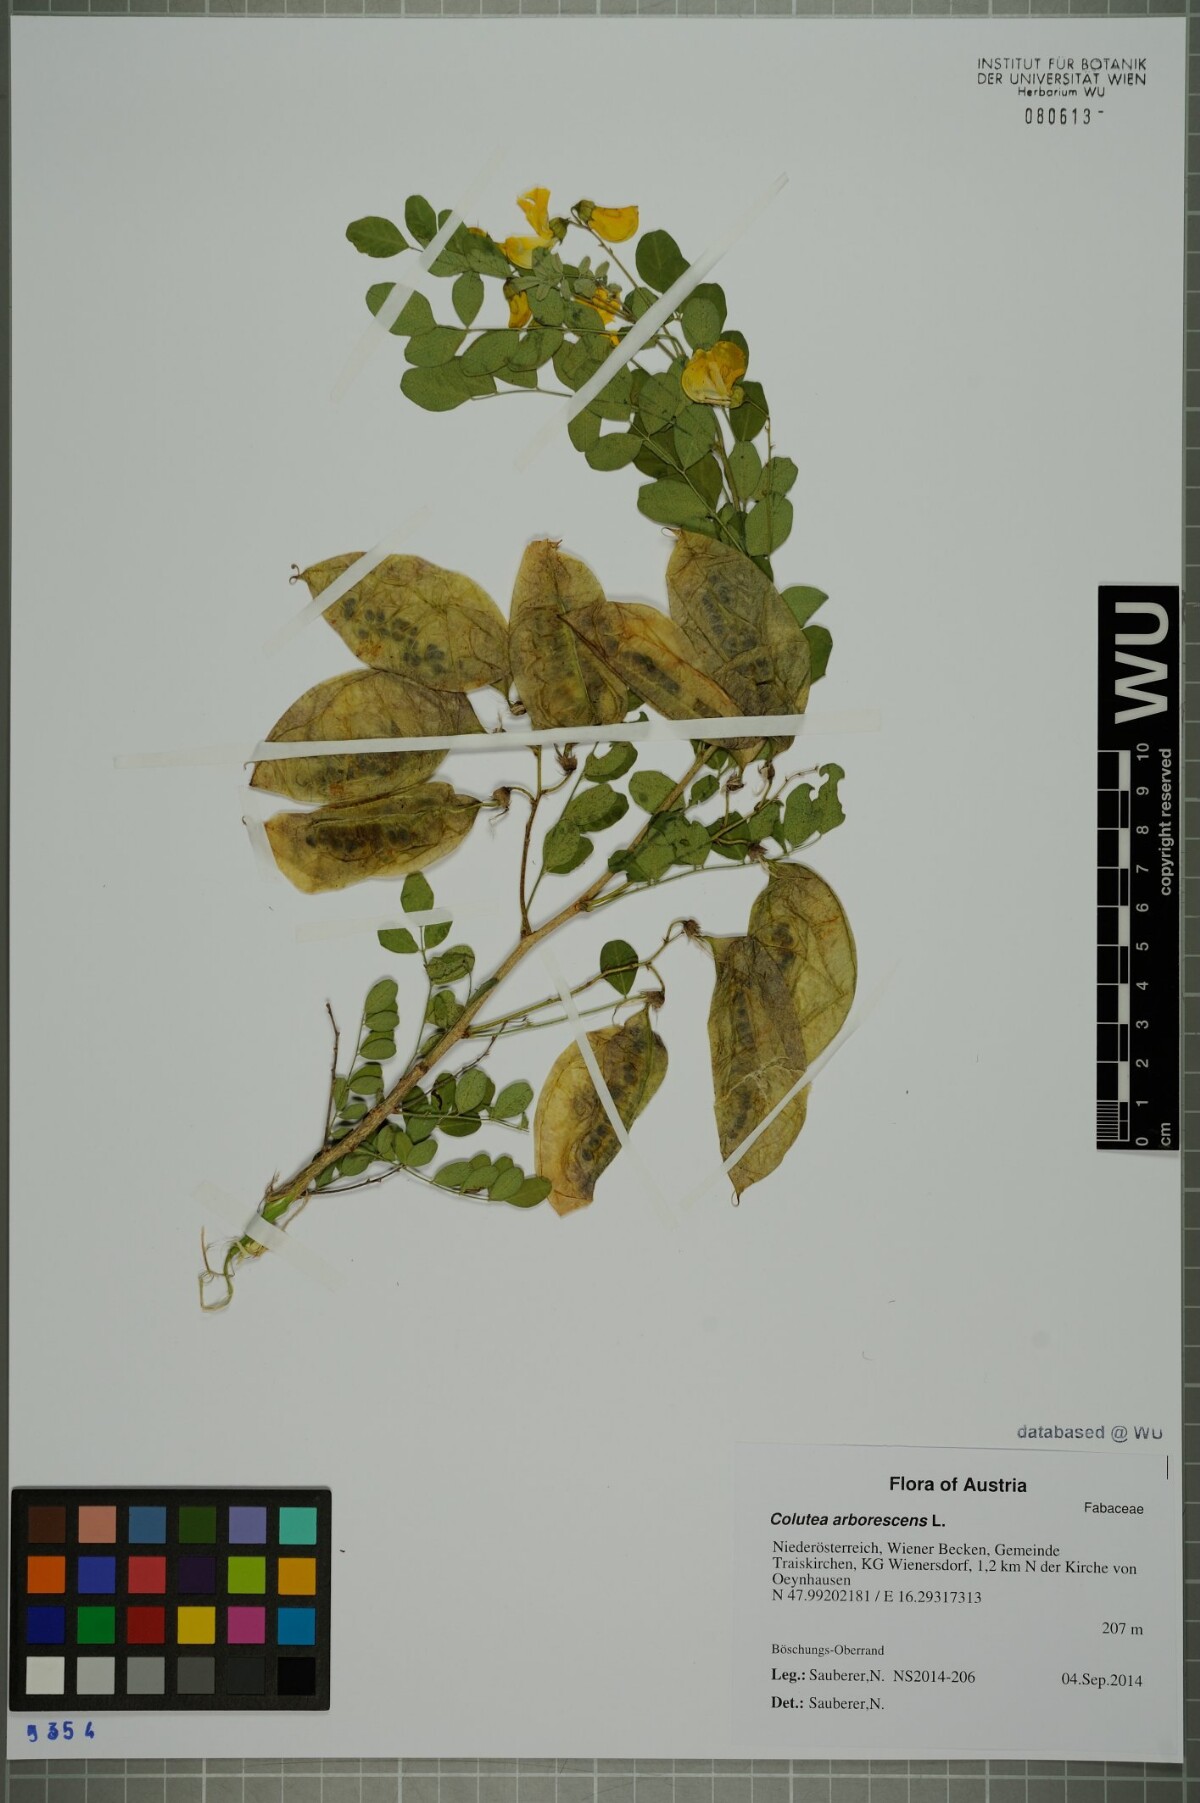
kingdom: Plantae
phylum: Tracheophyta
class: Magnoliopsida
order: Fabales
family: Fabaceae
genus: Colutea
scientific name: Colutea arborescens
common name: Bladder-senna
